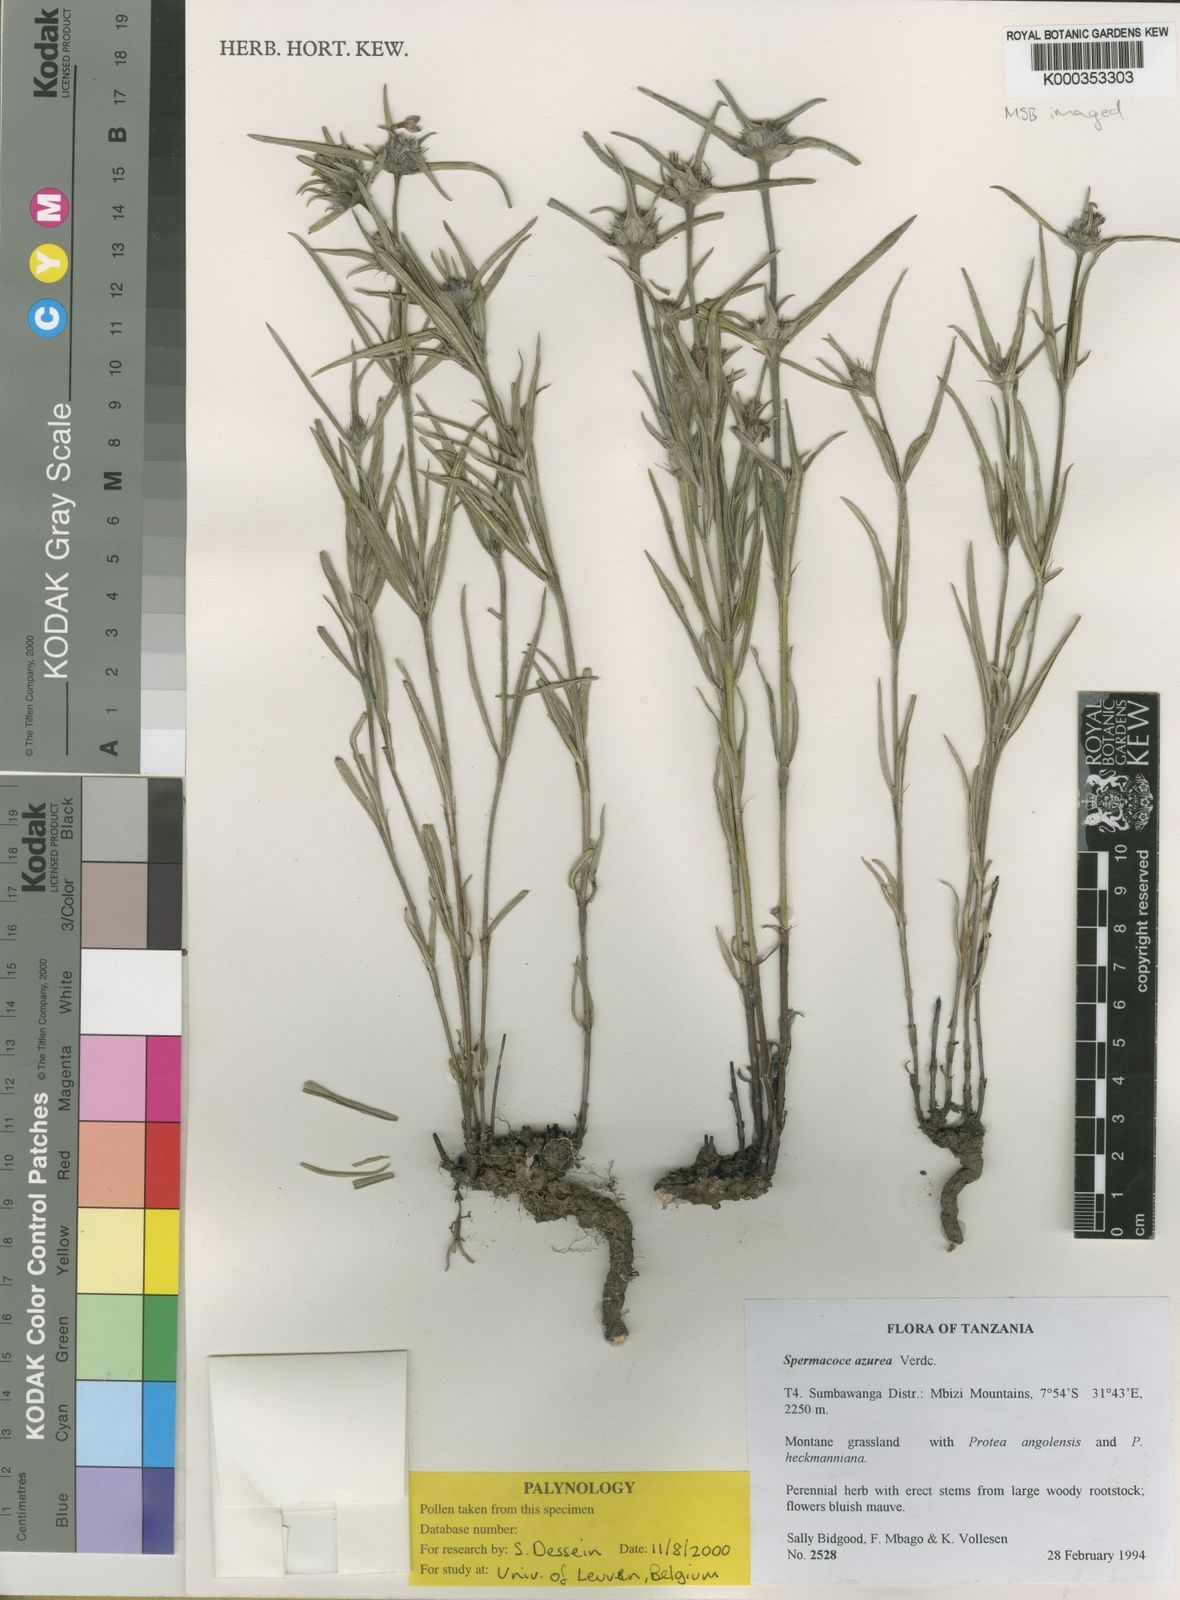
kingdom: Plantae
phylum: Tracheophyta
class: Magnoliopsida
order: Gentianales
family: Rubiaceae
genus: Spermacoce
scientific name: Spermacoce azurea
